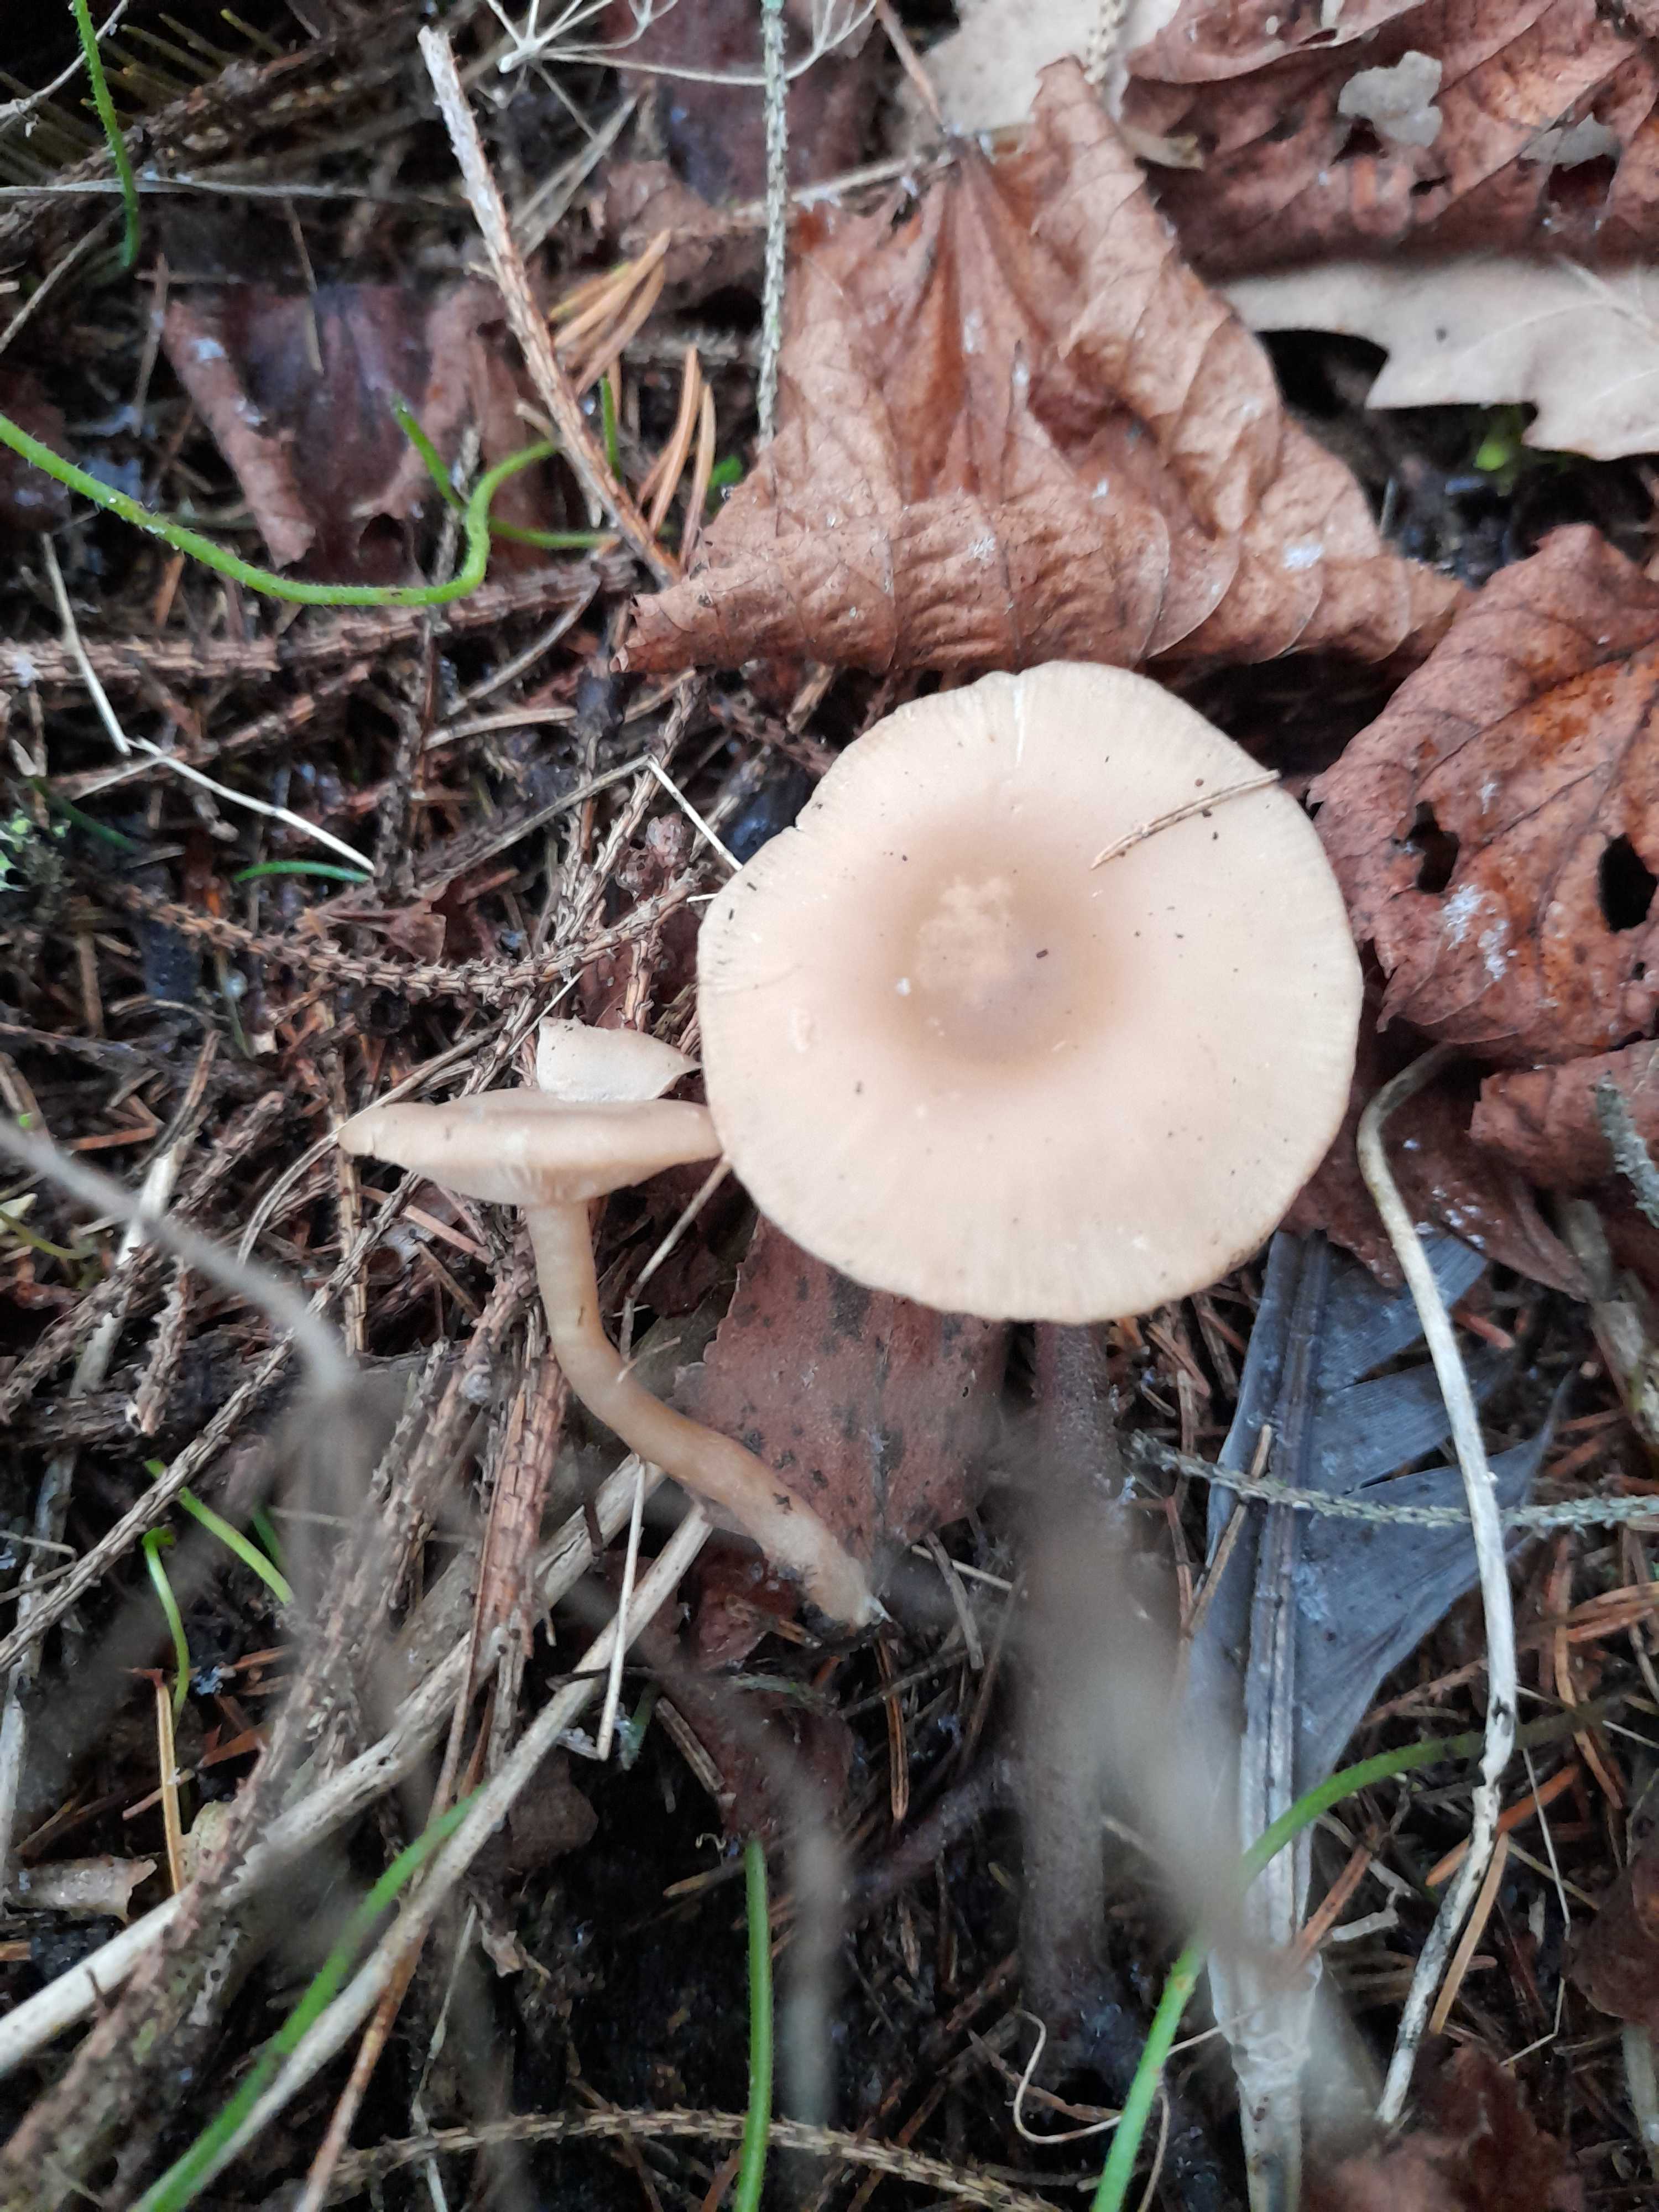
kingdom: Fungi
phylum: Basidiomycota
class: Agaricomycetes
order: Agaricales
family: Tricholomataceae
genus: Clitocybe
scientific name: Clitocybe fragrans
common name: vellugtende tragthat
